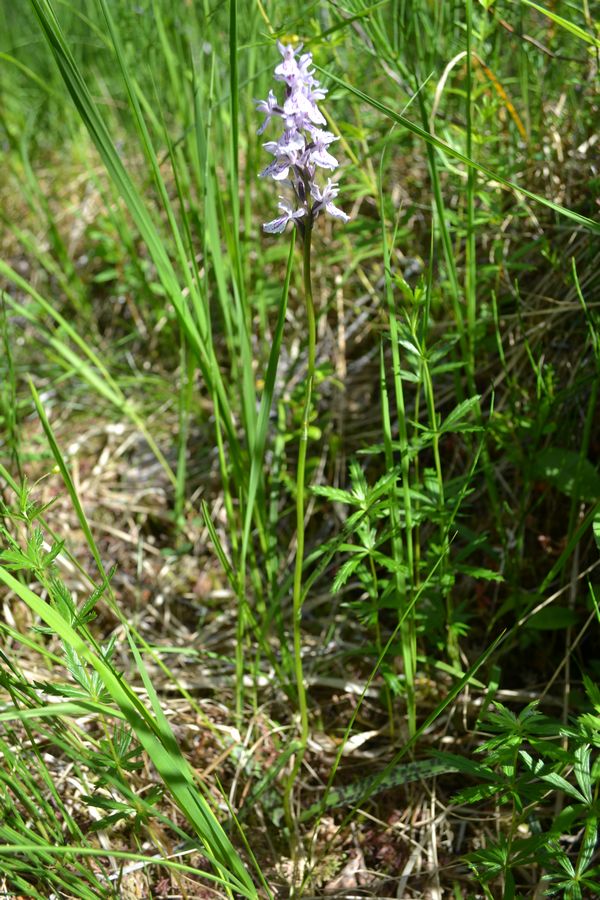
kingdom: Plantae
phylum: Tracheophyta
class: Liliopsida
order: Asparagales
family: Orchidaceae
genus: Dactylorhiza
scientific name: Dactylorhiza maculata
